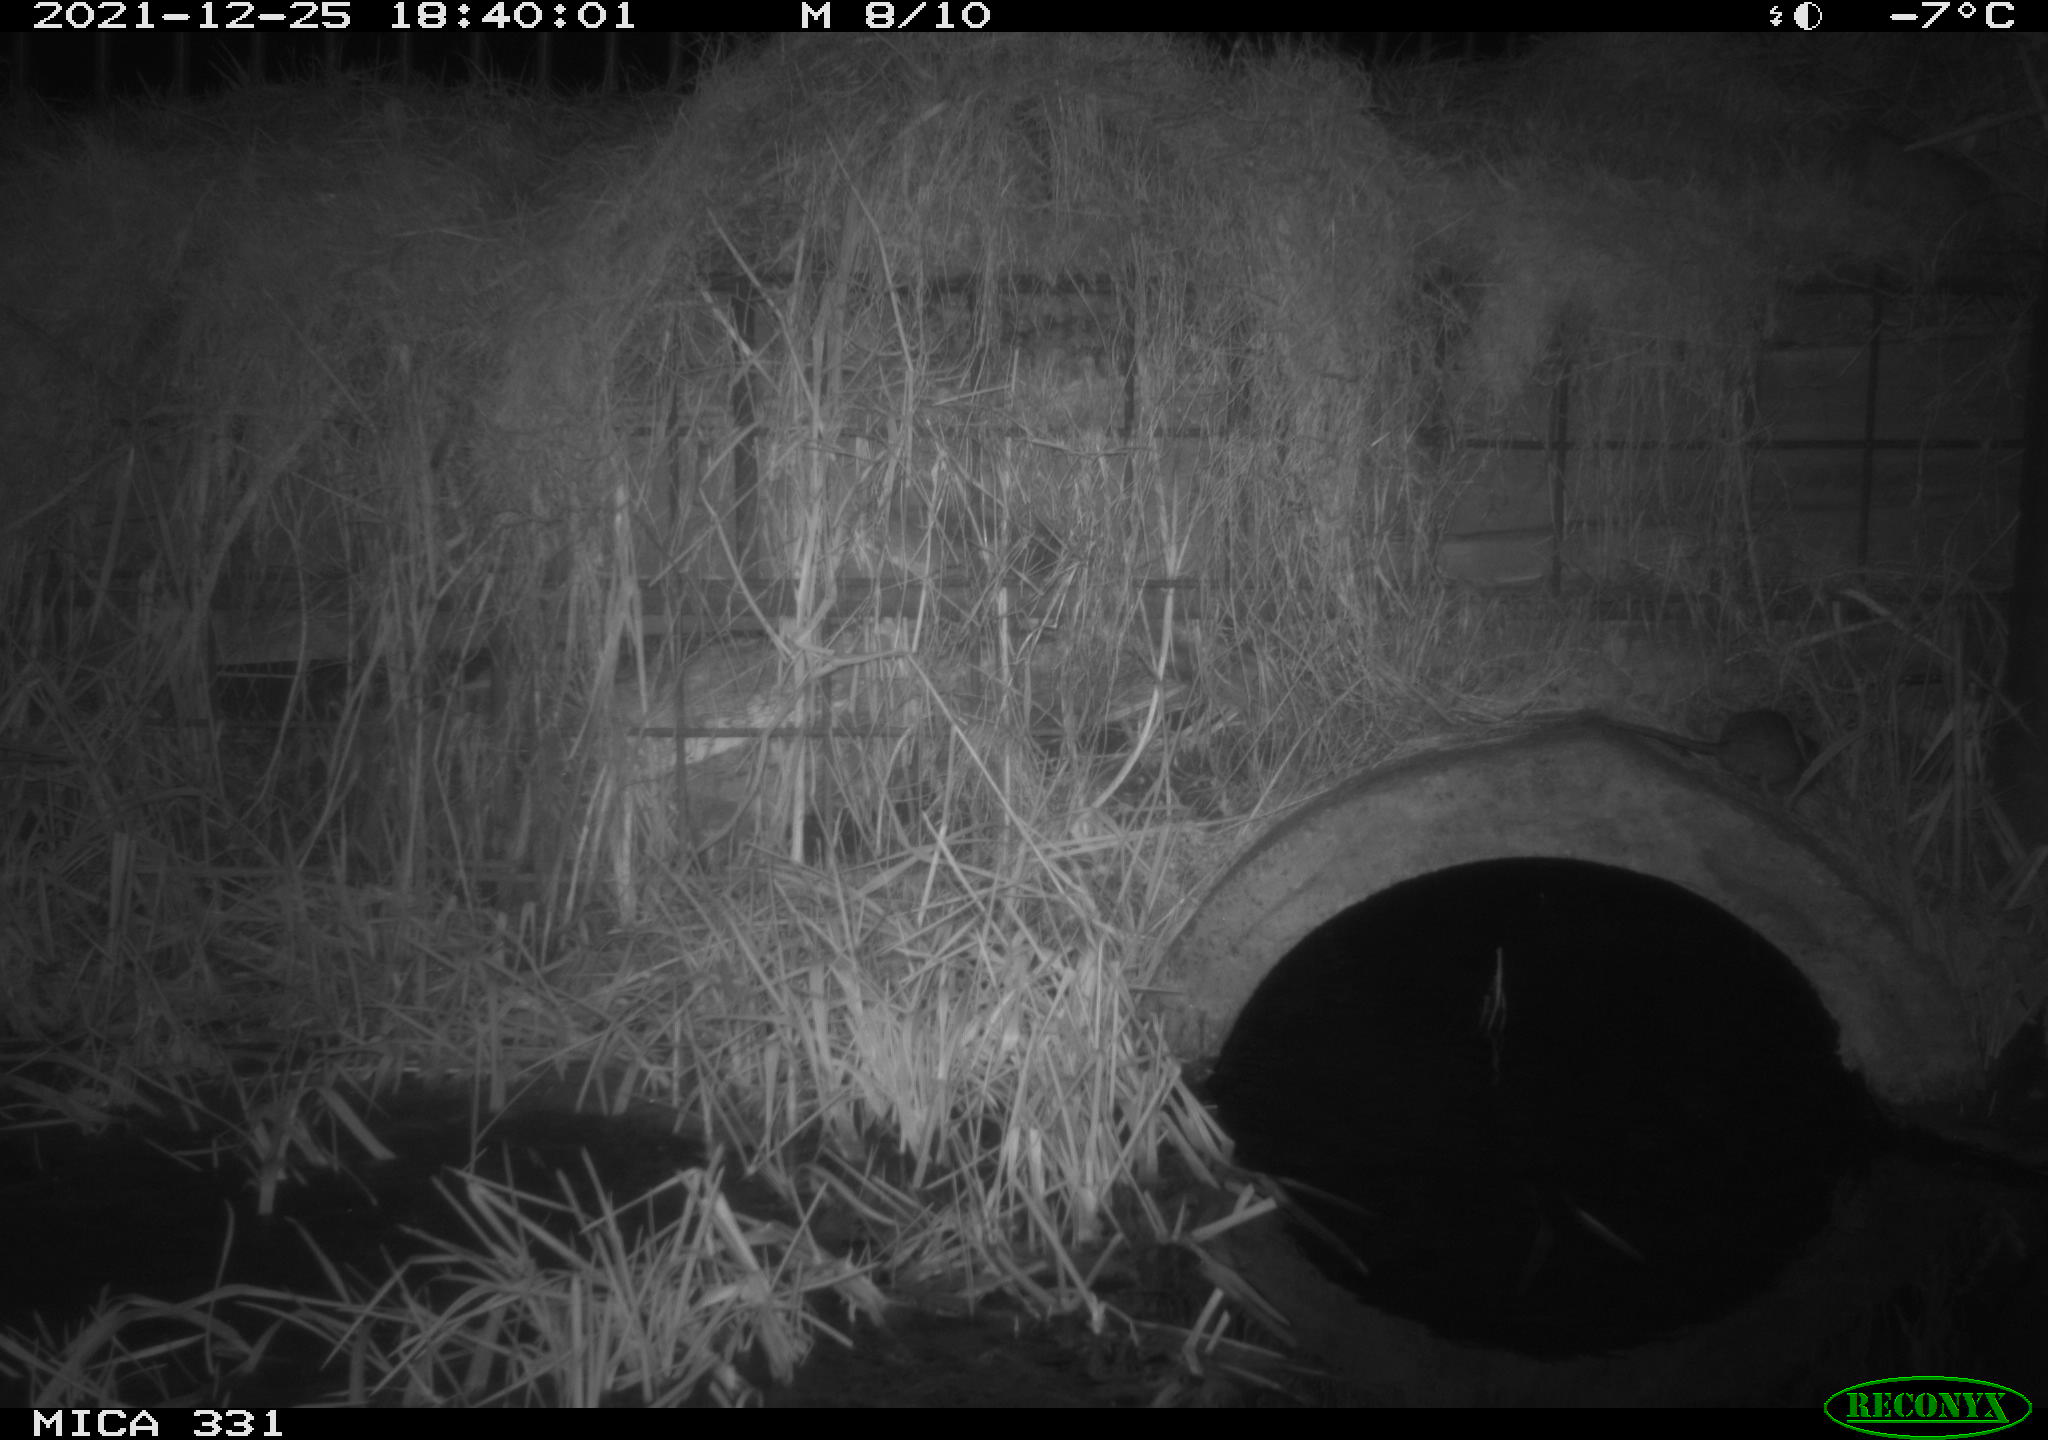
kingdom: Animalia
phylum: Chordata
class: Mammalia
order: Rodentia
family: Muridae
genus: Rattus
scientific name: Rattus norvegicus
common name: Brown rat
